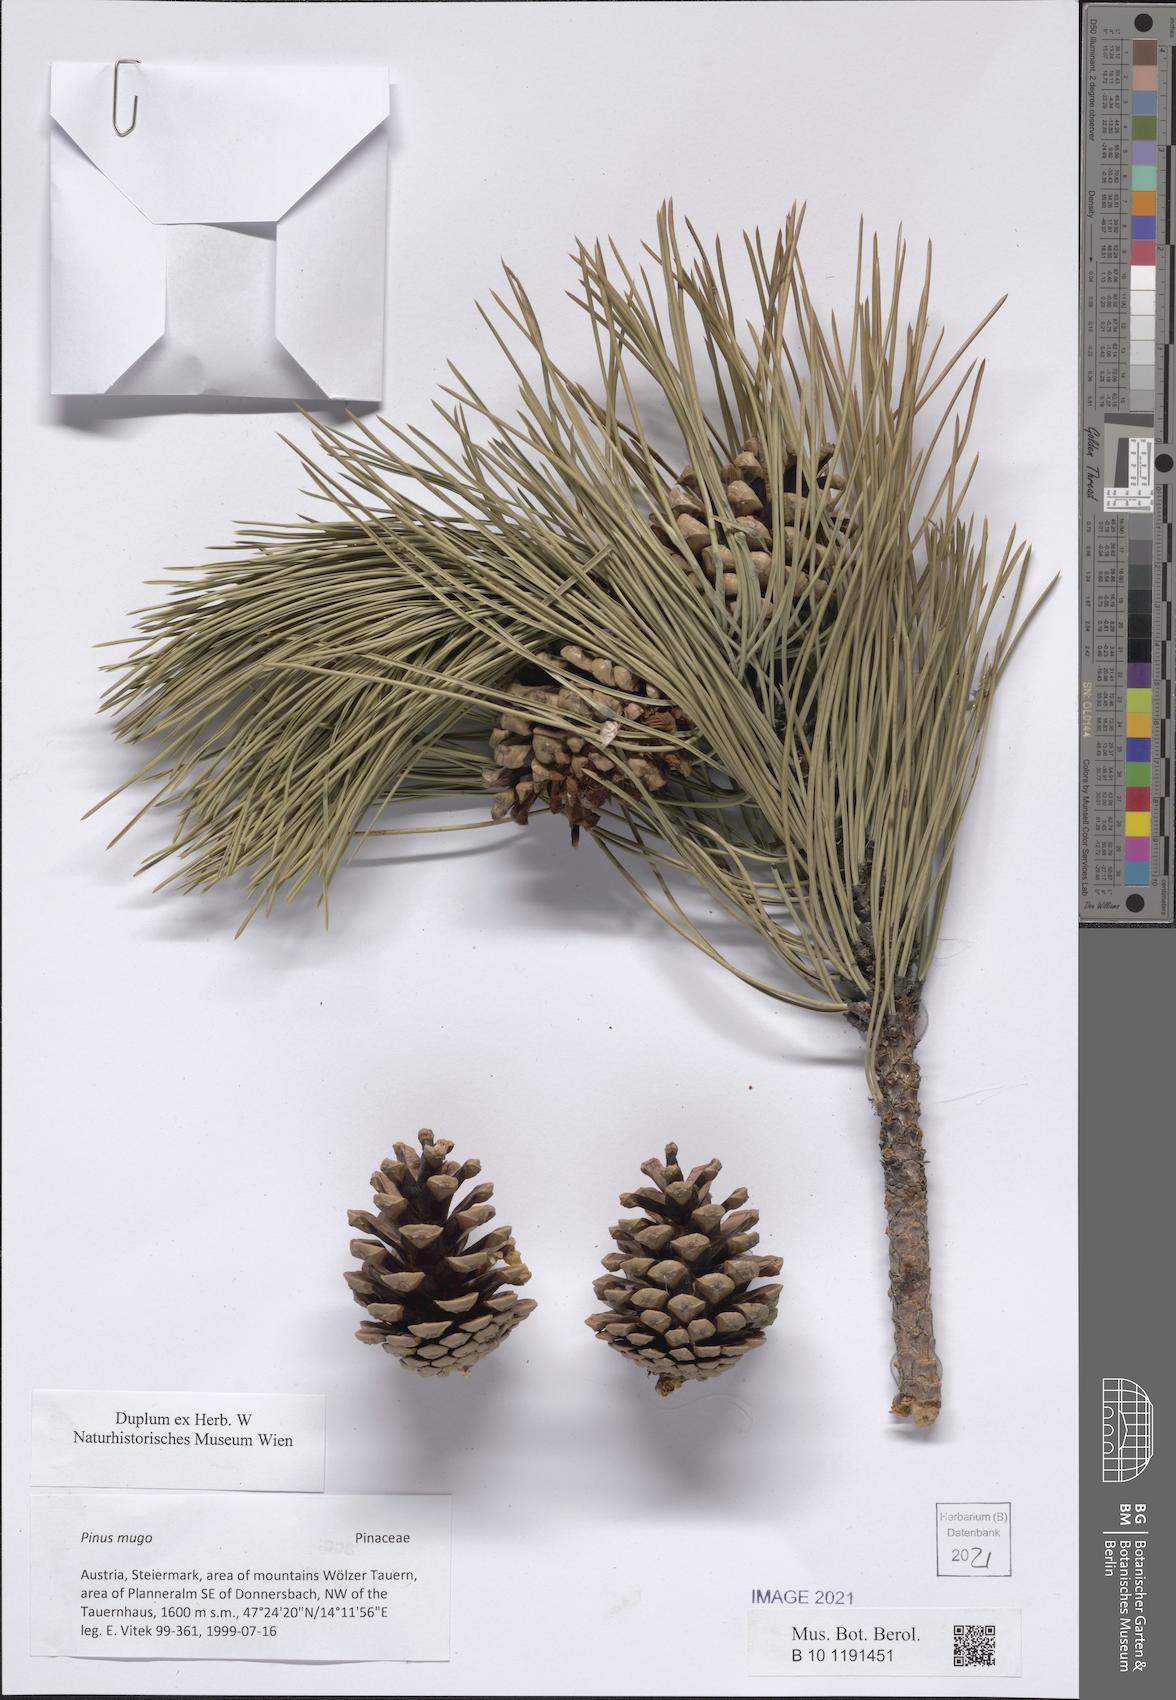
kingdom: Plantae
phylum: Tracheophyta
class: Pinopsida
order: Pinales
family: Pinaceae
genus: Pinus
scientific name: Pinus mugo
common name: Mugo pine
